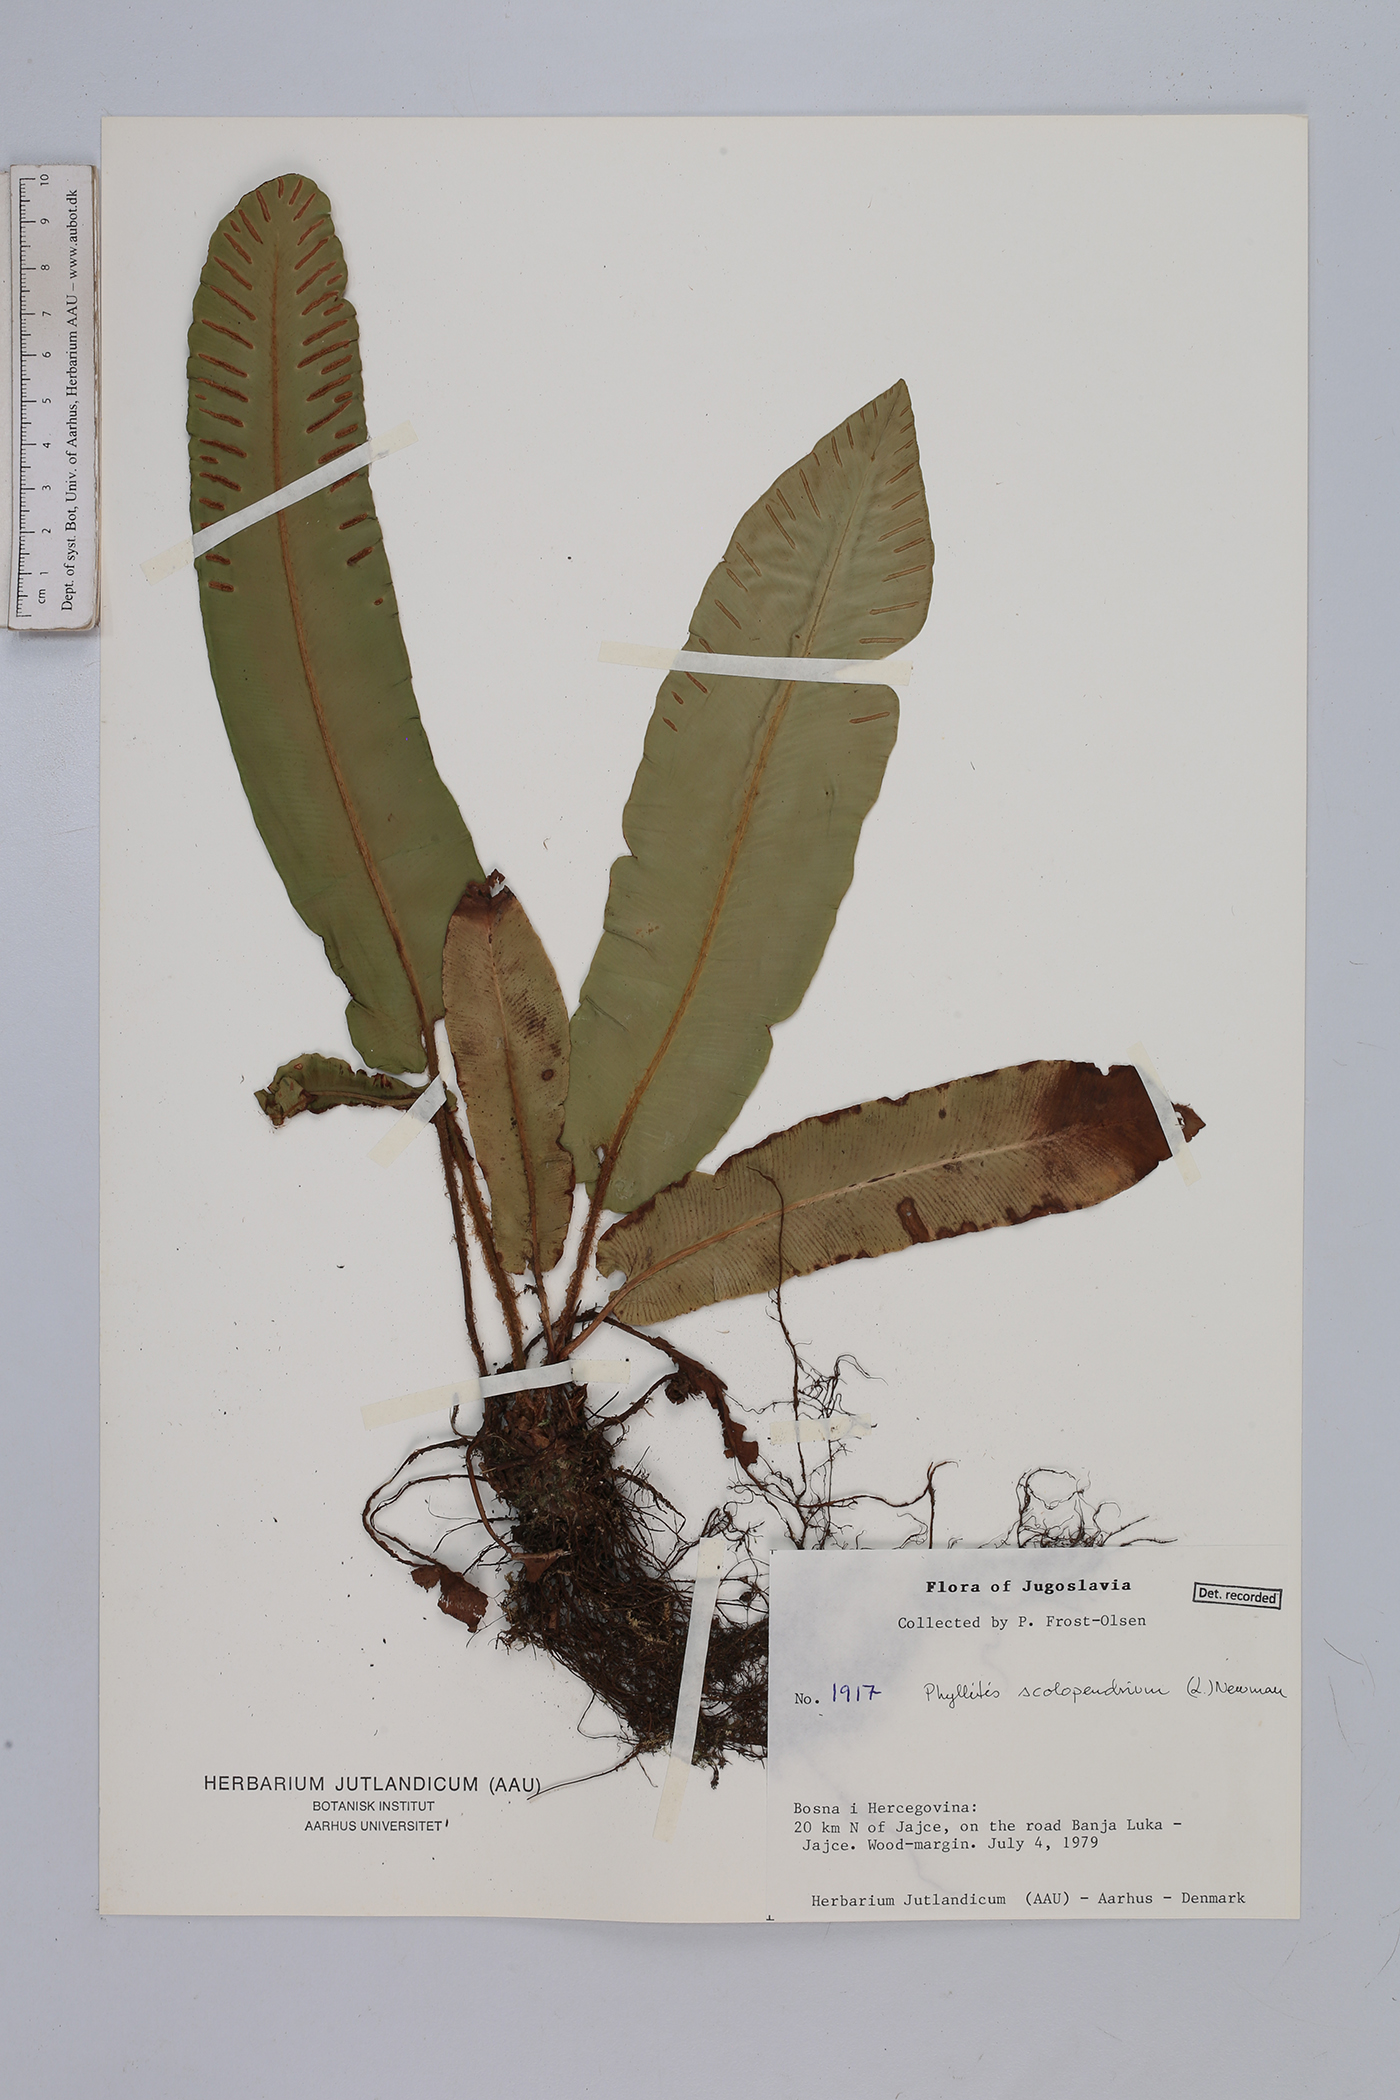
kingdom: Plantae
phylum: Tracheophyta
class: Polypodiopsida
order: Polypodiales
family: Aspleniaceae
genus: Asplenium
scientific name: Asplenium scolopendrium
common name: Hart's-tongue fern
